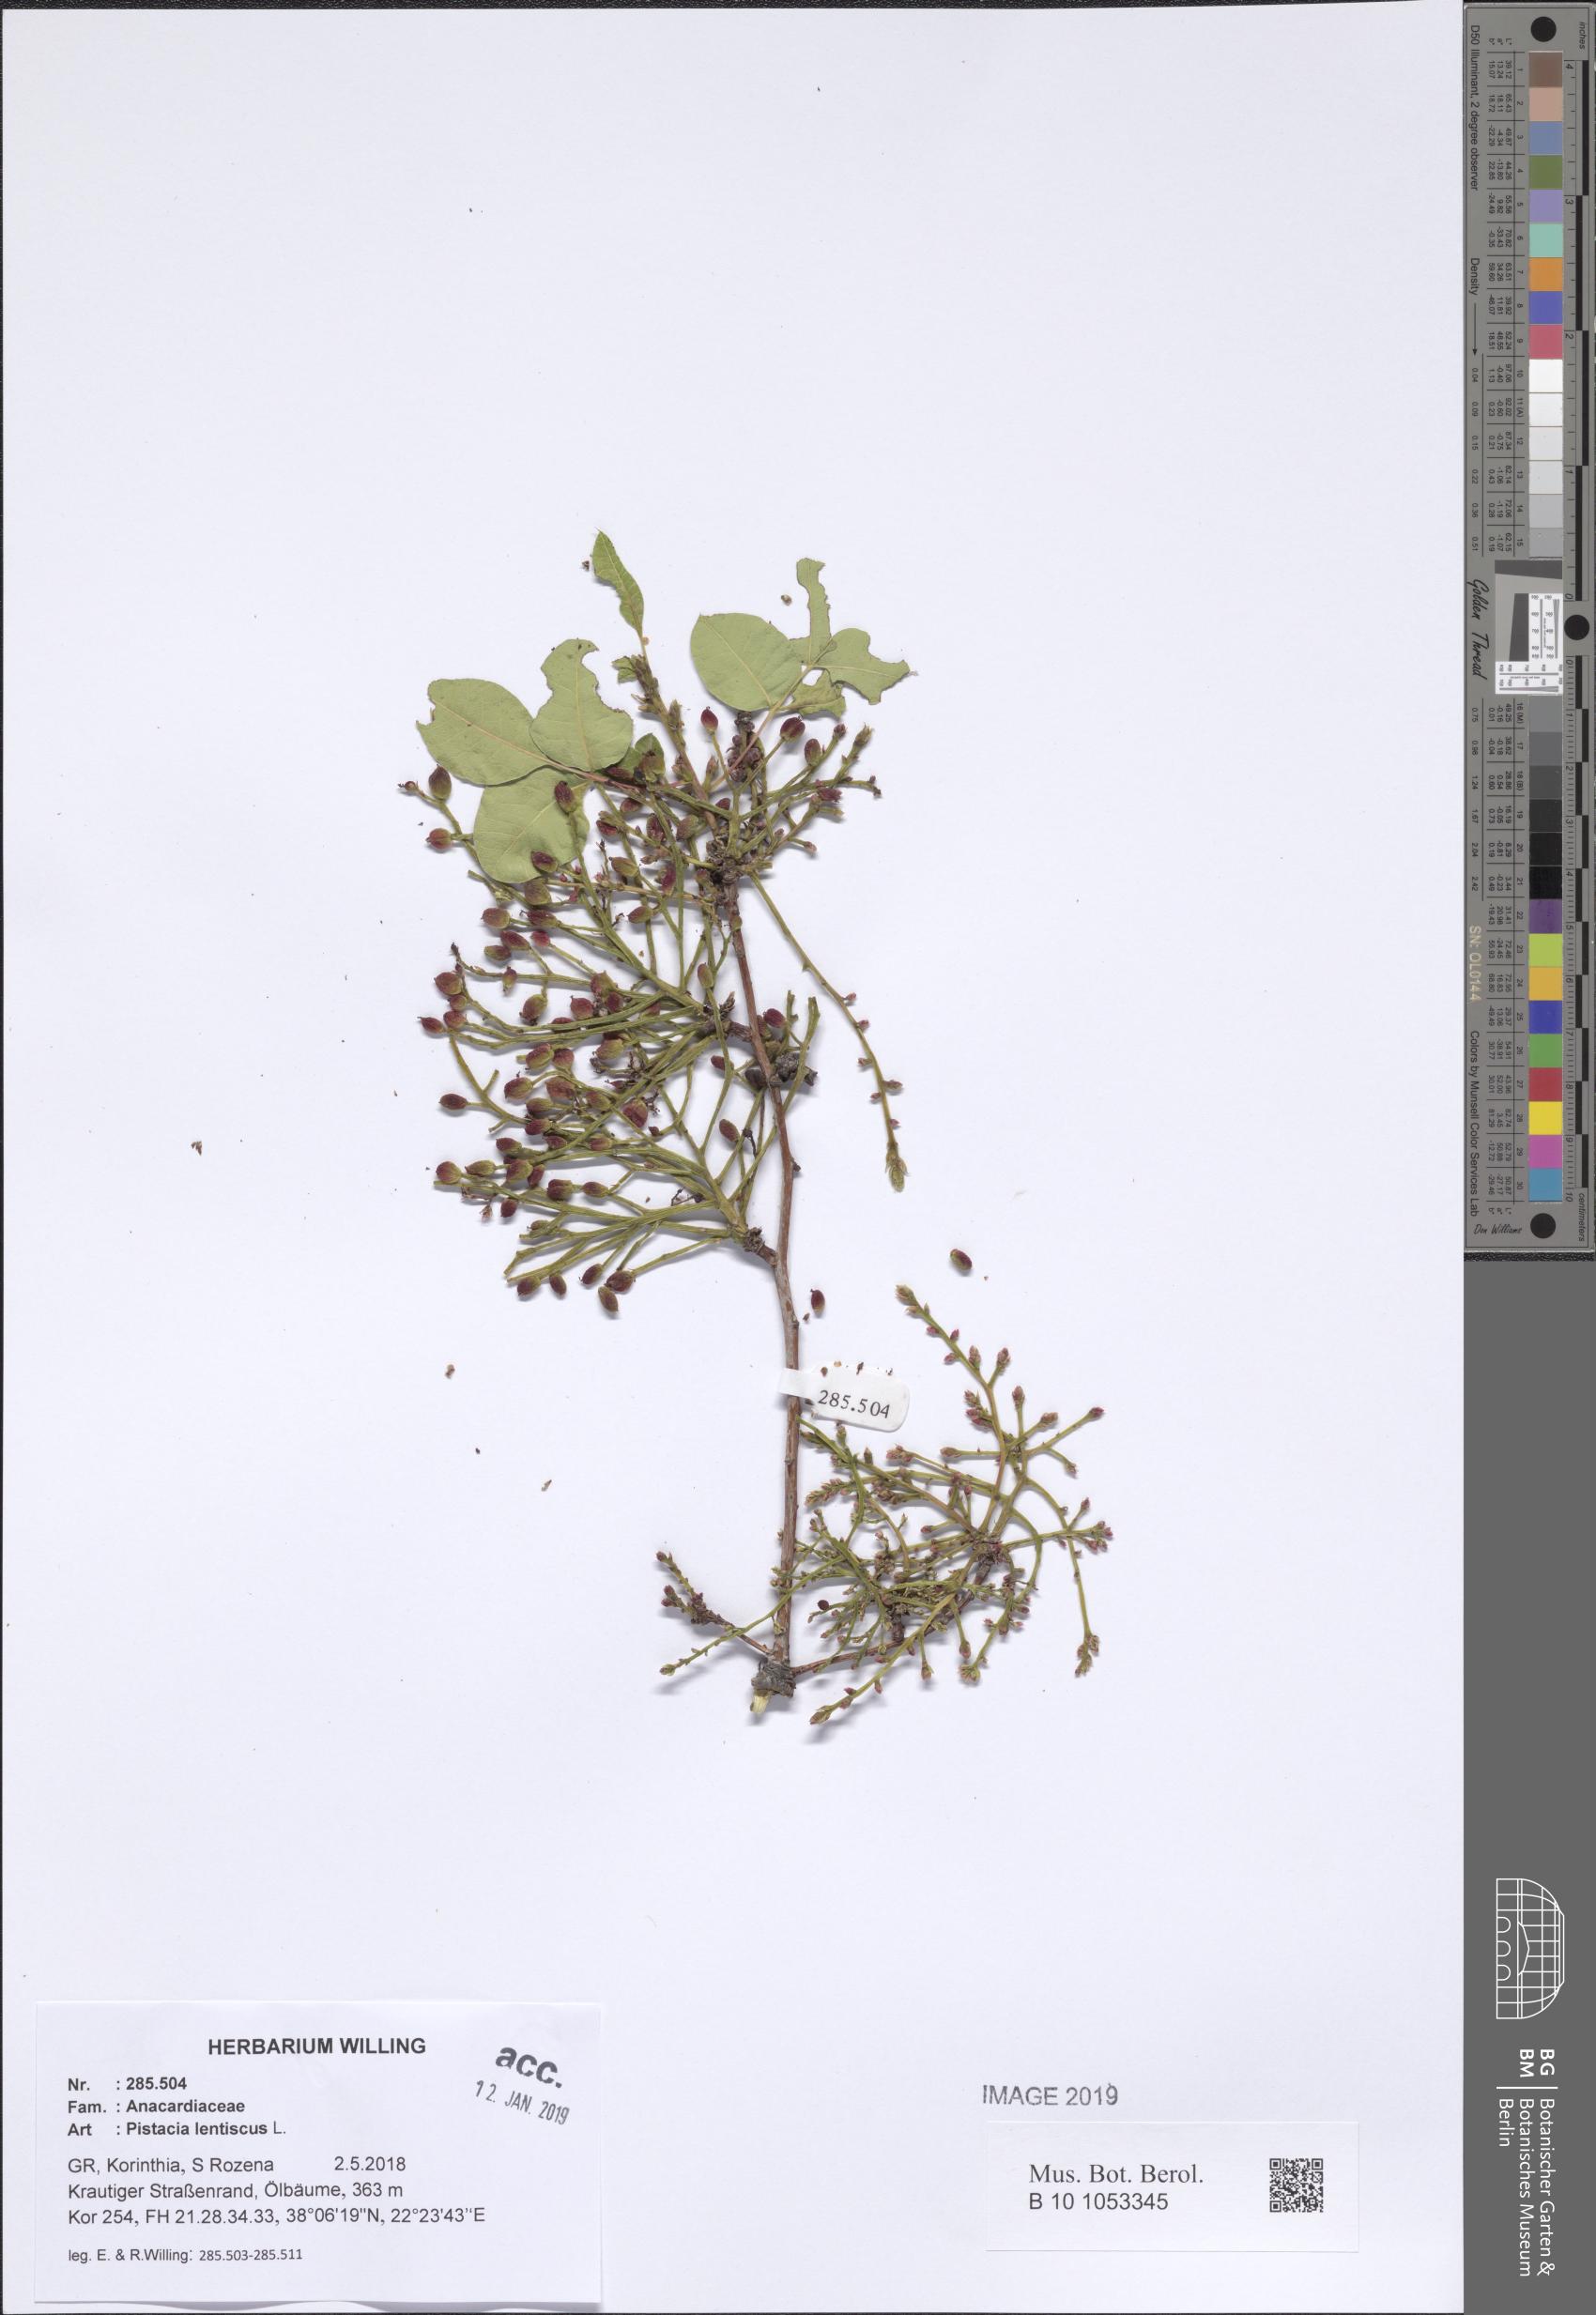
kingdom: Plantae
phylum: Tracheophyta
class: Magnoliopsida
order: Sapindales
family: Anacardiaceae
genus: Pistacia
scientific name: Pistacia lentiscus
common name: Lentisk
